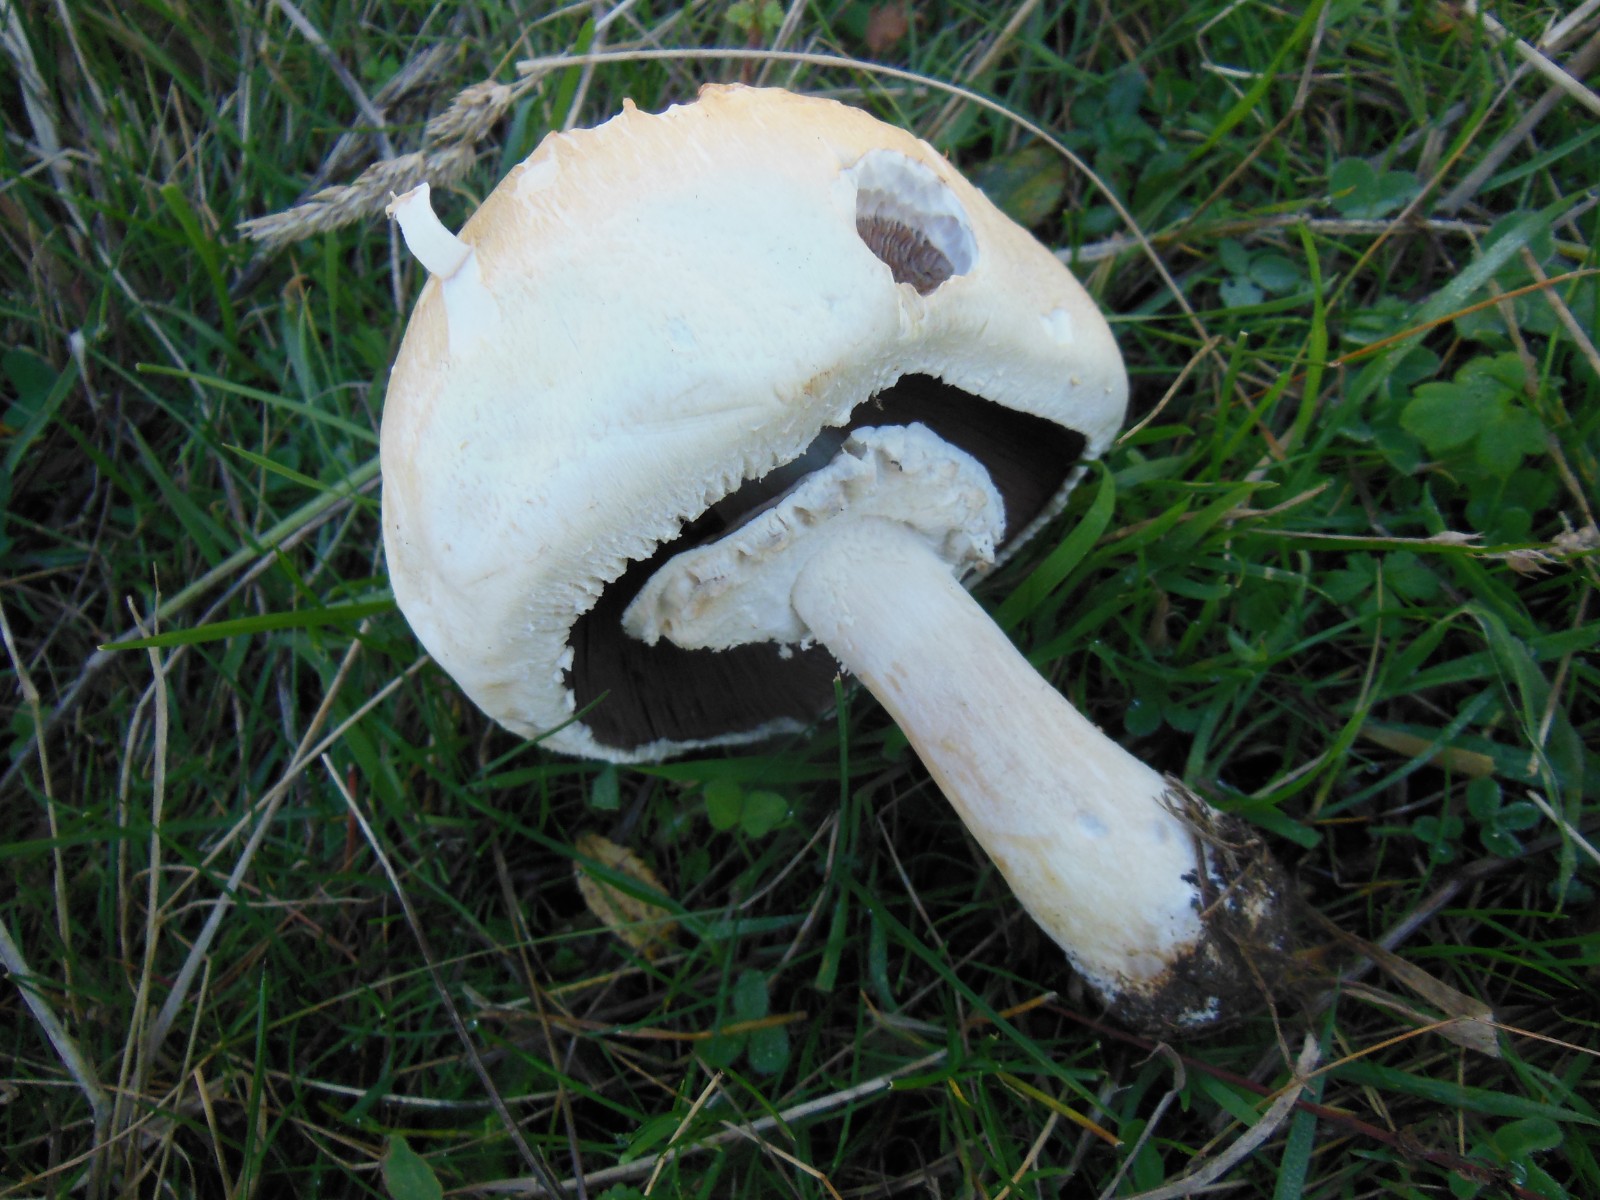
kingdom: Fungi
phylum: Basidiomycota
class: Agaricomycetes
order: Agaricales
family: Agaricaceae
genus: Agaricus
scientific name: Agaricus arvensis
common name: ager-champignon
